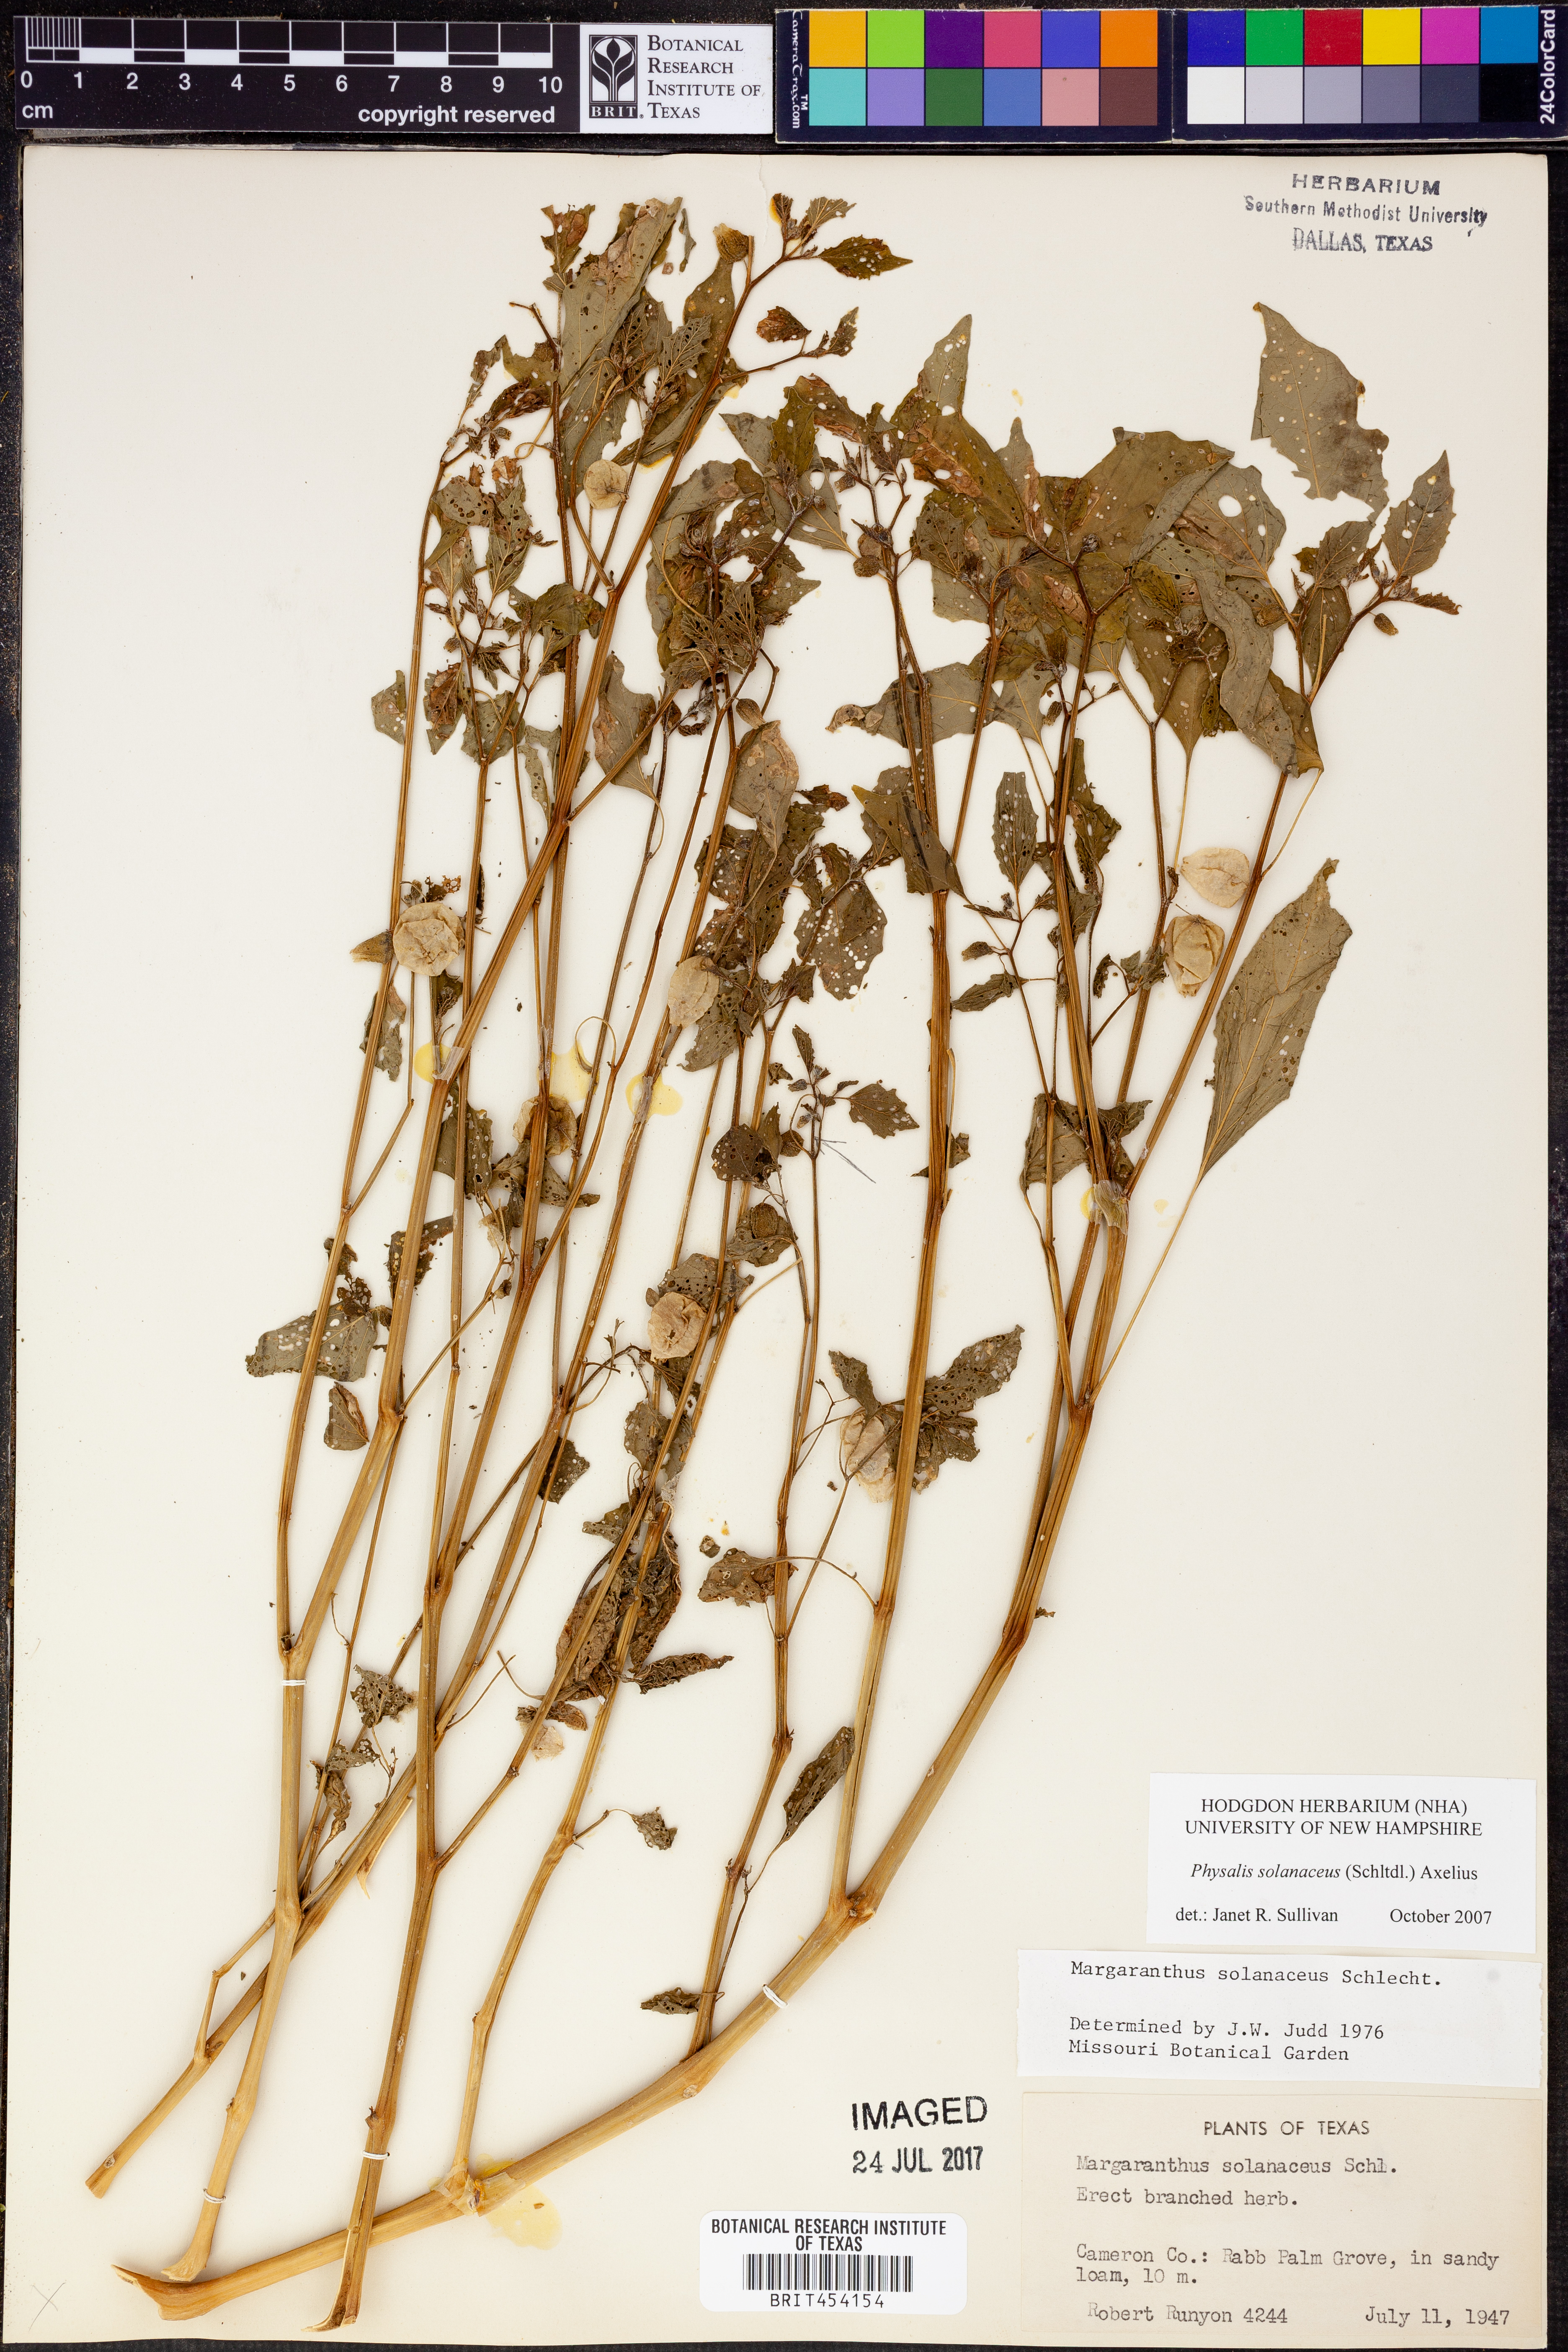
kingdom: Plantae
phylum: Tracheophyta
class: Magnoliopsida
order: Solanales
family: Solanaceae
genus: Physalis
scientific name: Physalis solanacea
